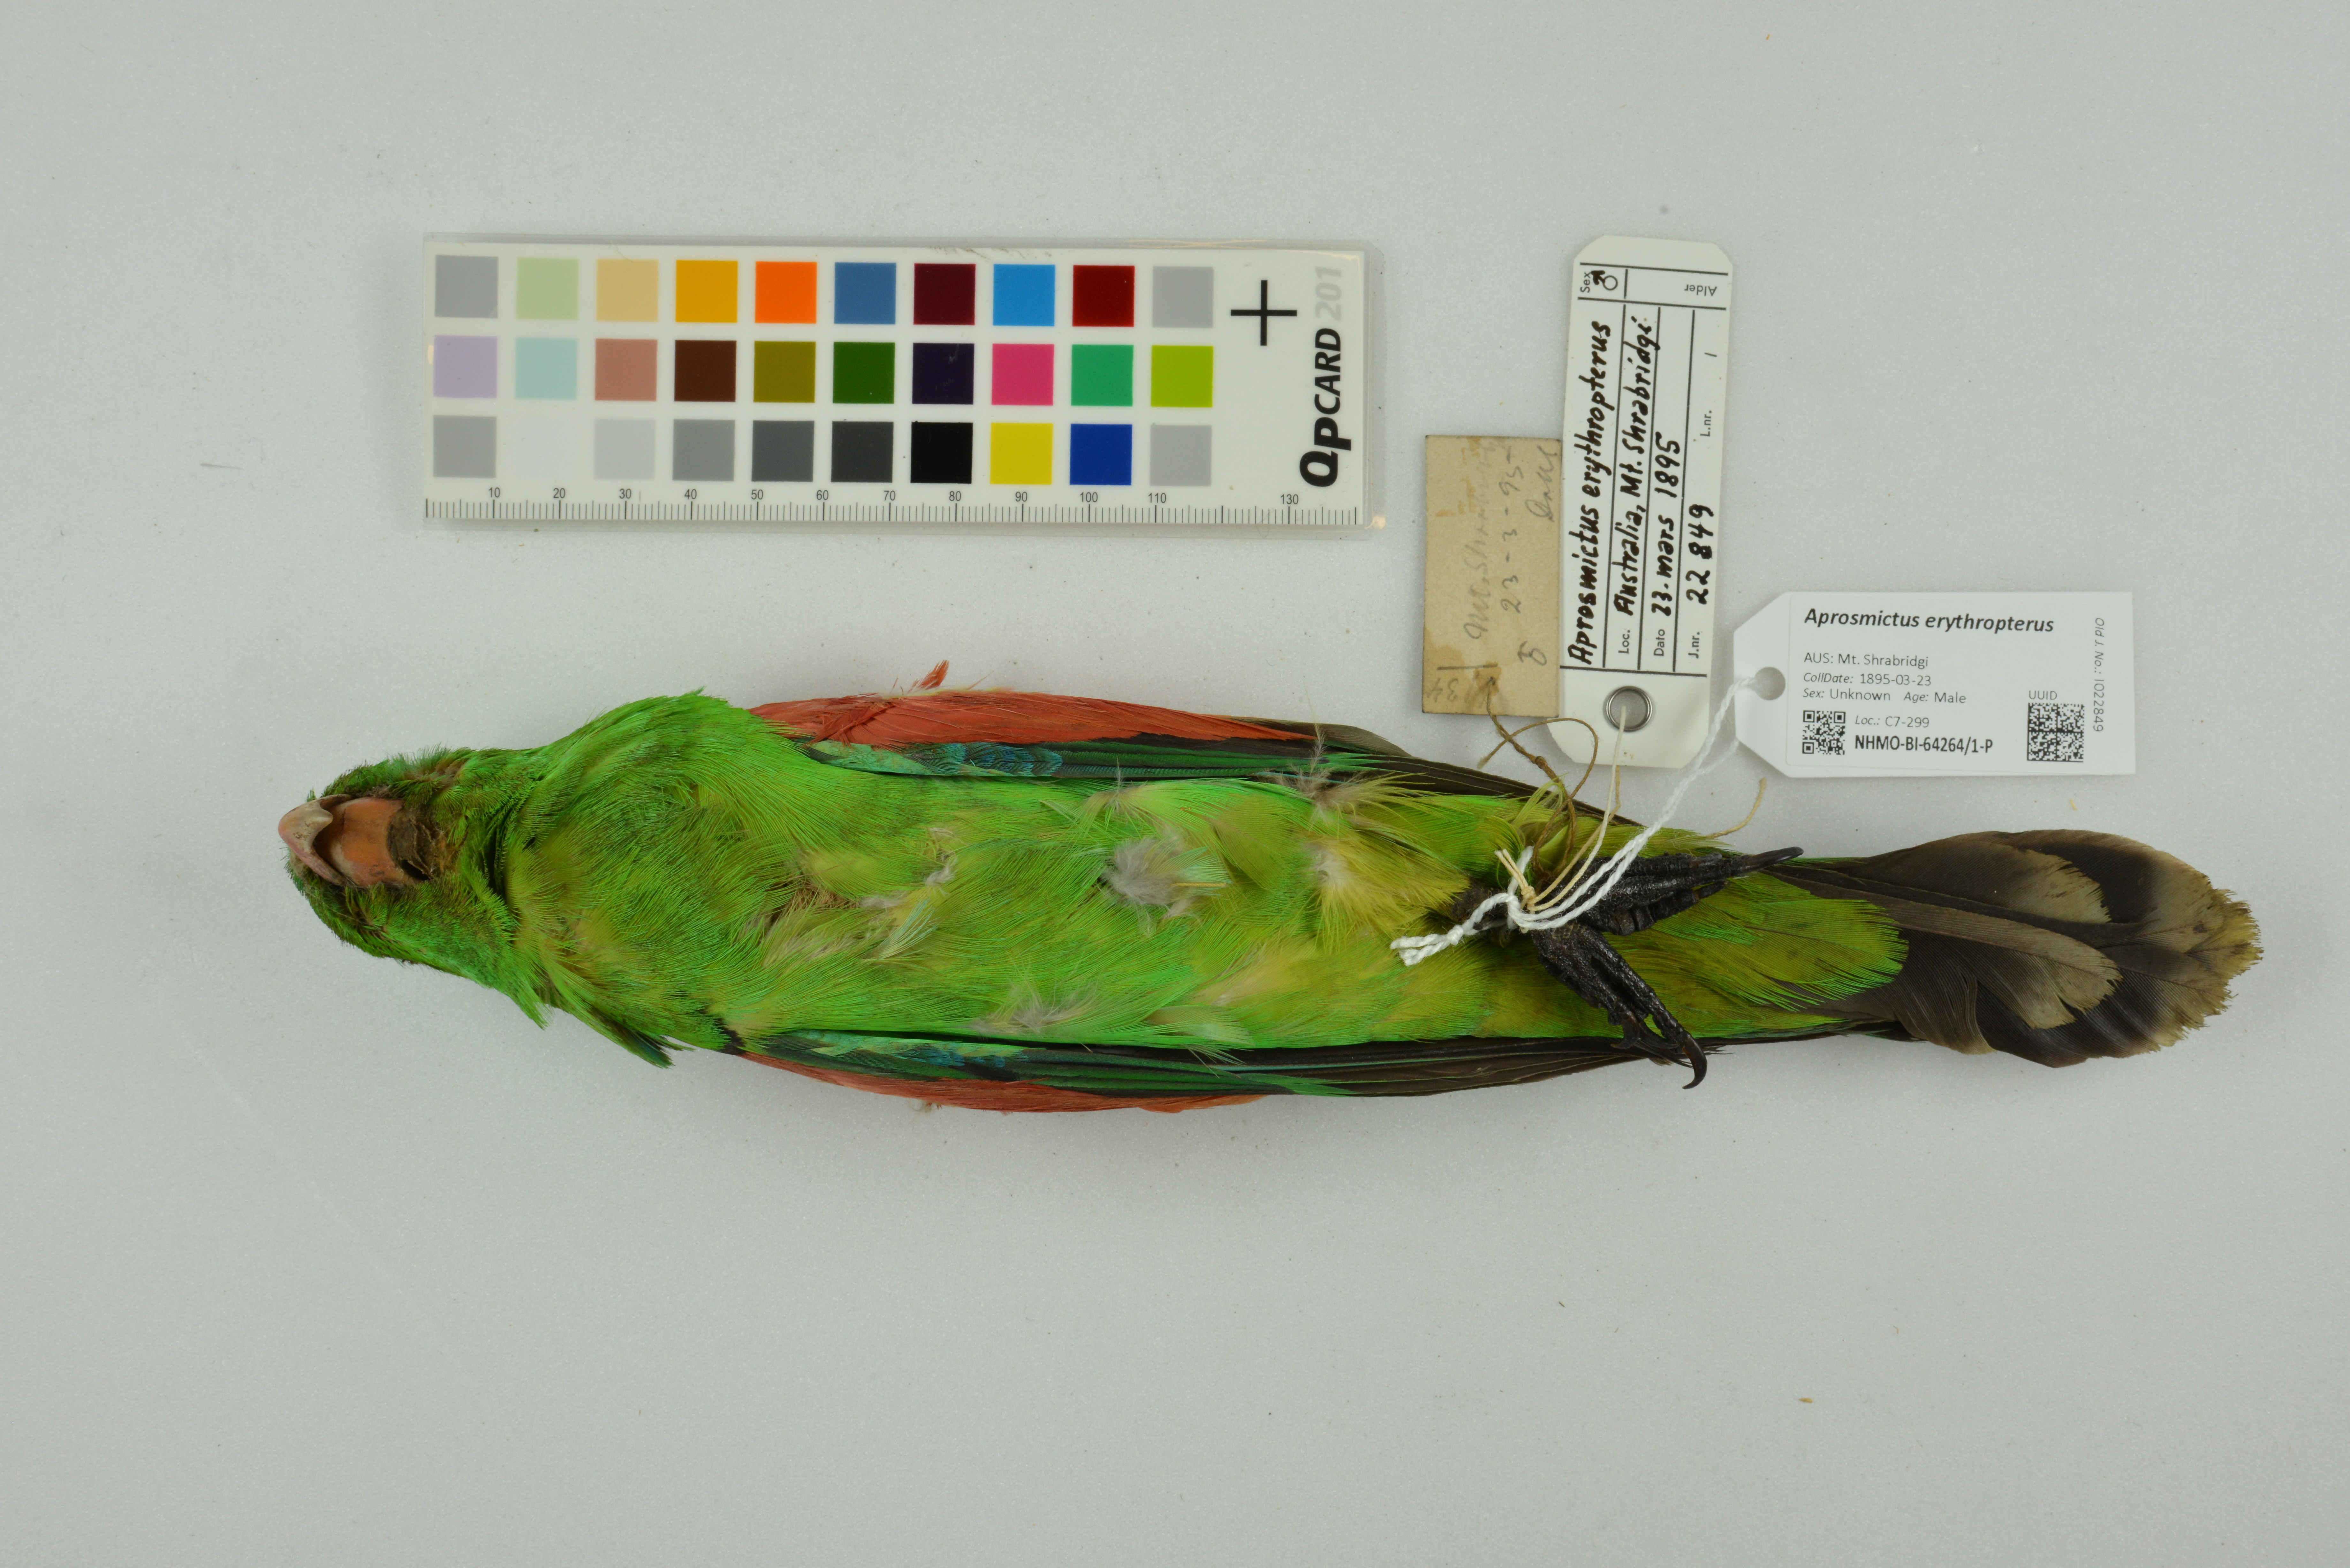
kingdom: Animalia
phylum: Chordata
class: Aves
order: Psittaciformes
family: Psittacidae
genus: Aprosmictus
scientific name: Aprosmictus erythropterus
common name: Red-winged parrot
